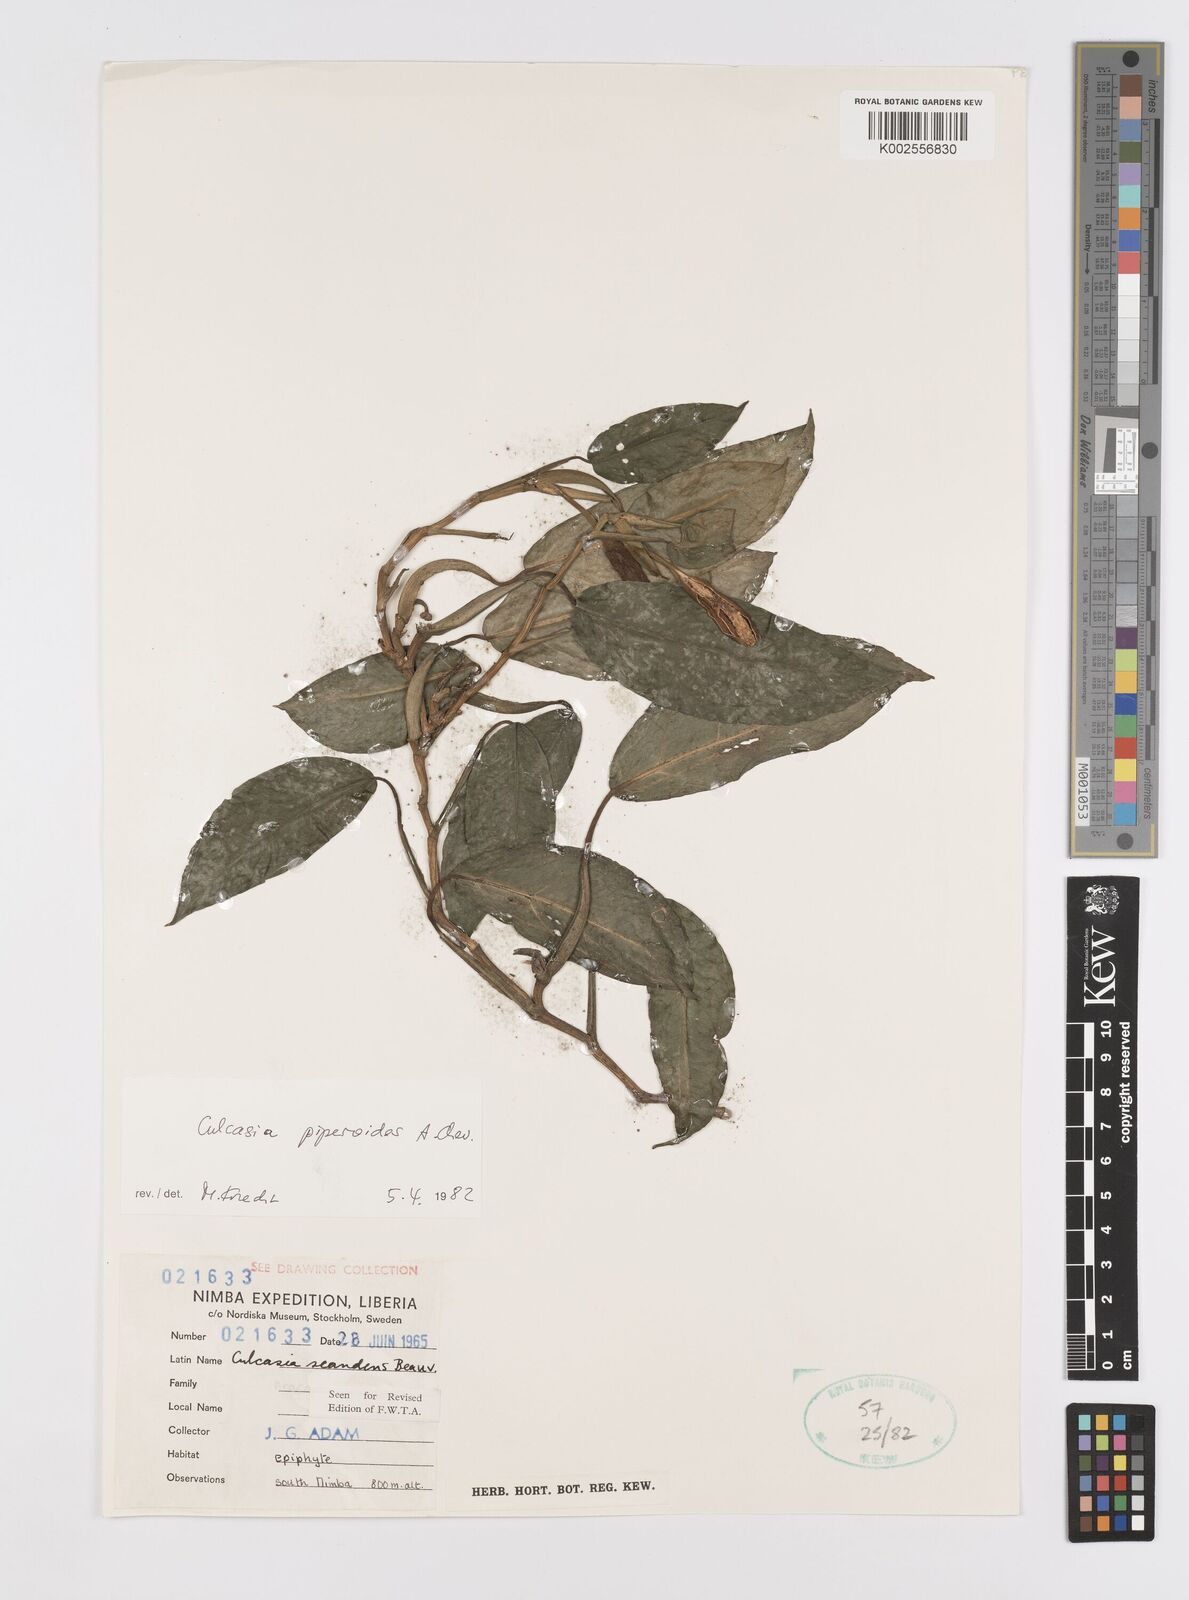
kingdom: Plantae
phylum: Tracheophyta
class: Liliopsida
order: Alismatales
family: Araceae
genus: Culcasia
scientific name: Culcasia parviflora
